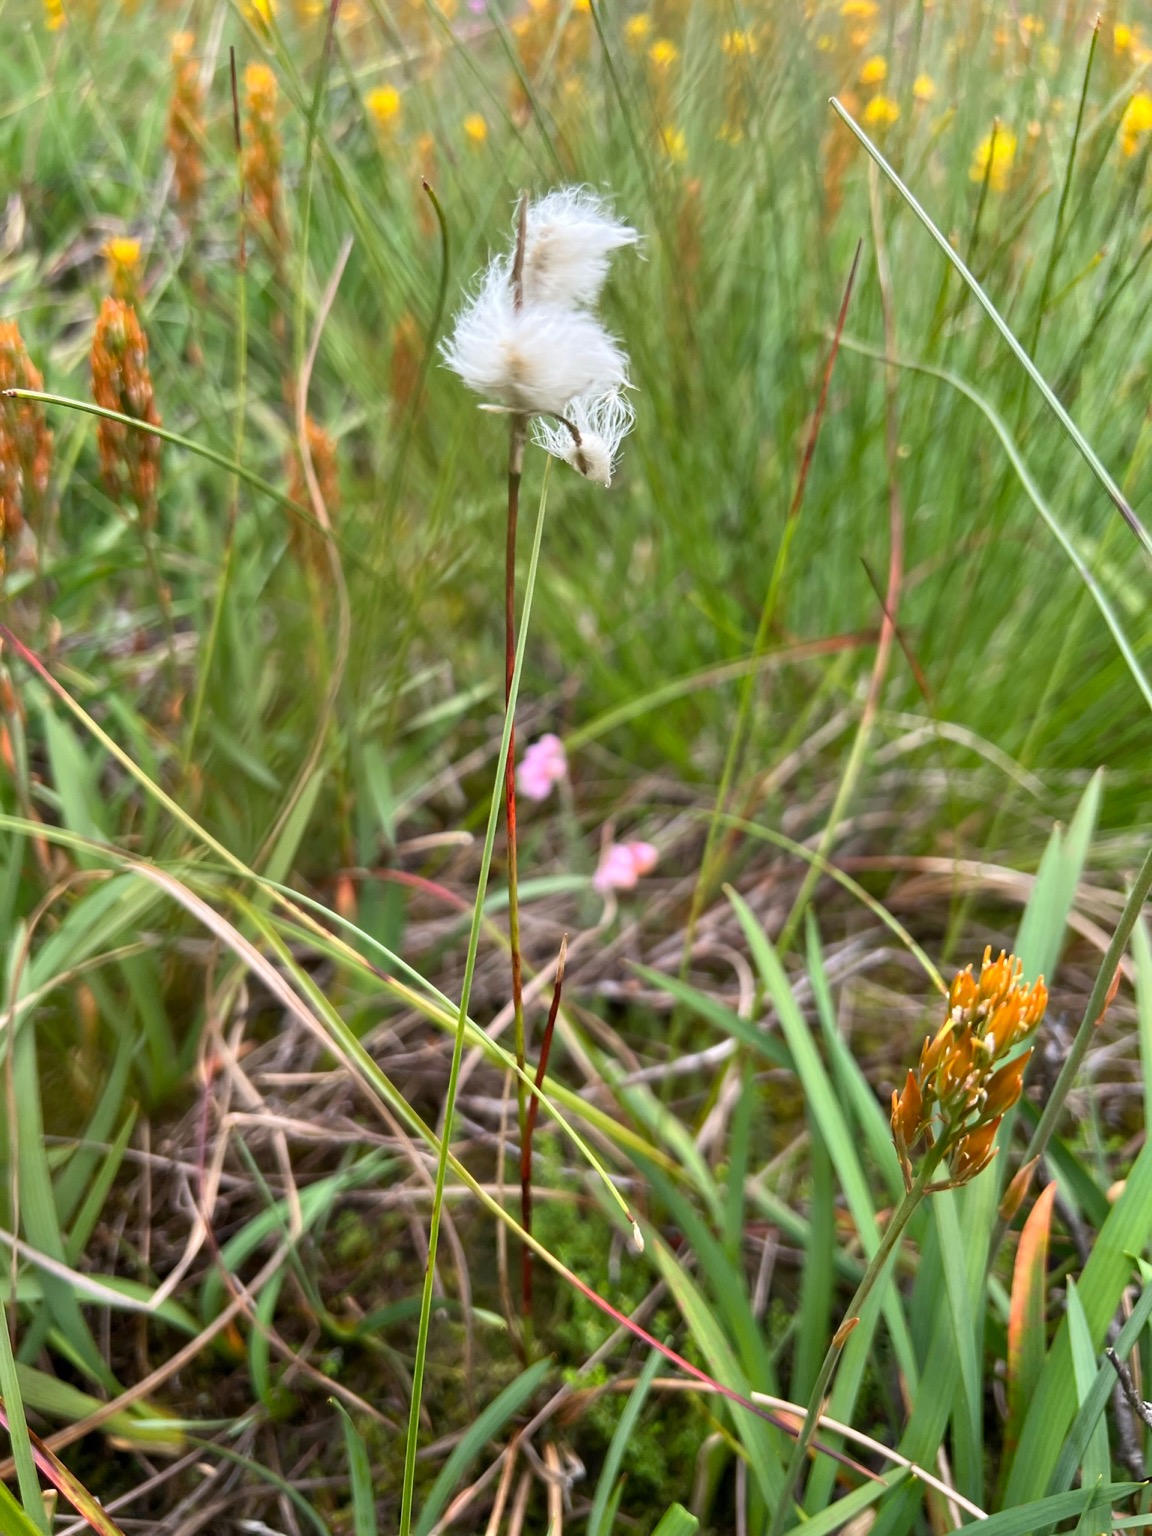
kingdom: Plantae
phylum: Tracheophyta
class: Liliopsida
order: Poales
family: Cyperaceae
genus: Eriophorum
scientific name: Eriophorum angustifolium
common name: Smalbladet kæruld
